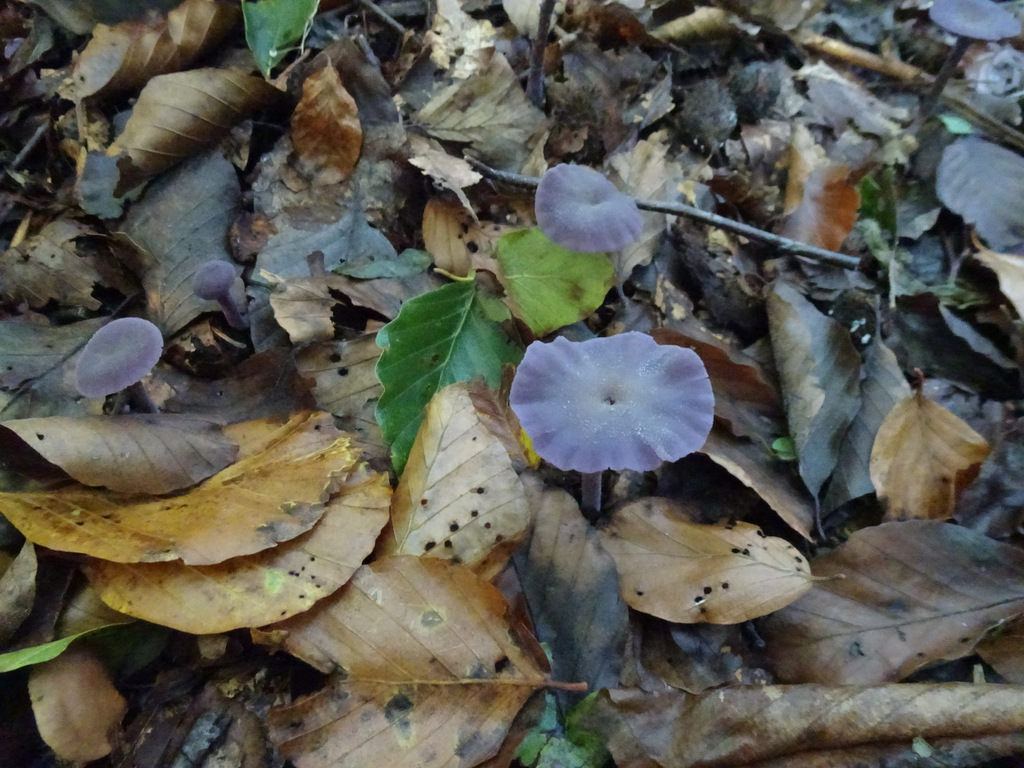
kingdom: Fungi
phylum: Basidiomycota
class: Agaricomycetes
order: Agaricales
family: Hydnangiaceae
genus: Laccaria
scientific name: Laccaria amethystina
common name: violet ametysthat
